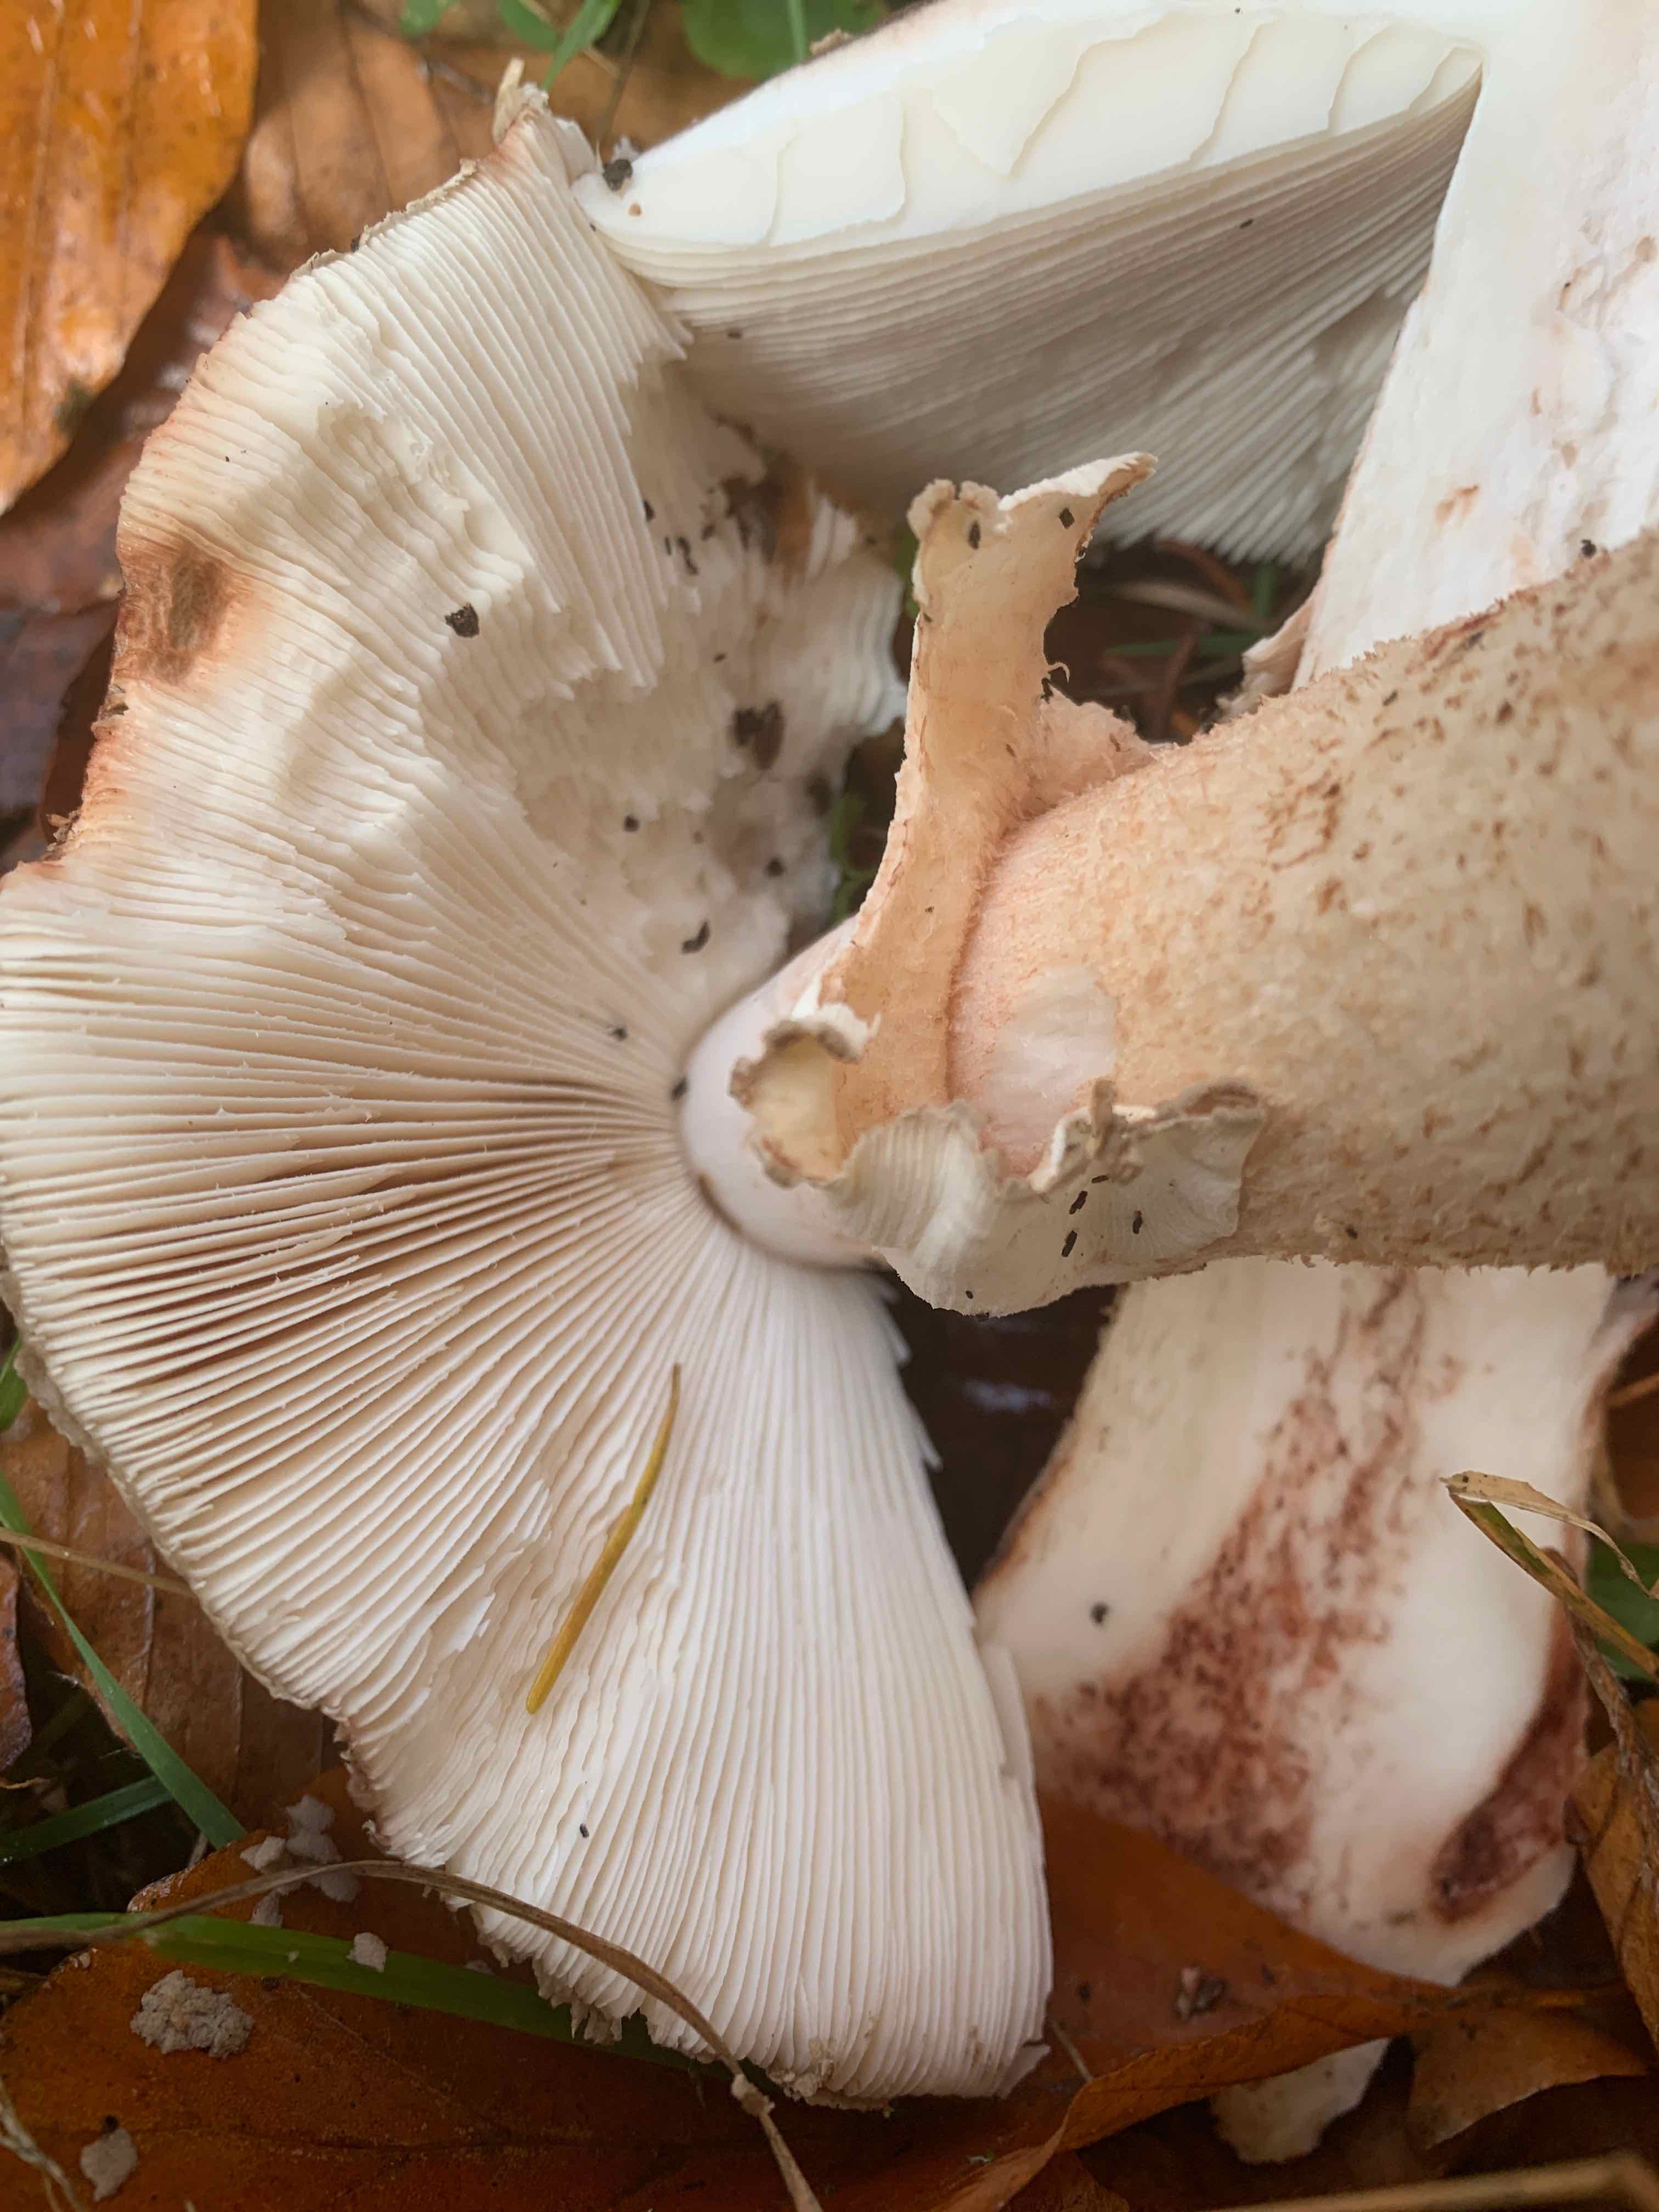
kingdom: Fungi
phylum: Basidiomycota
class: Agaricomycetes
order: Agaricales
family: Amanitaceae
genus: Amanita
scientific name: Amanita rubescens
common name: rødmende fluesvamp
